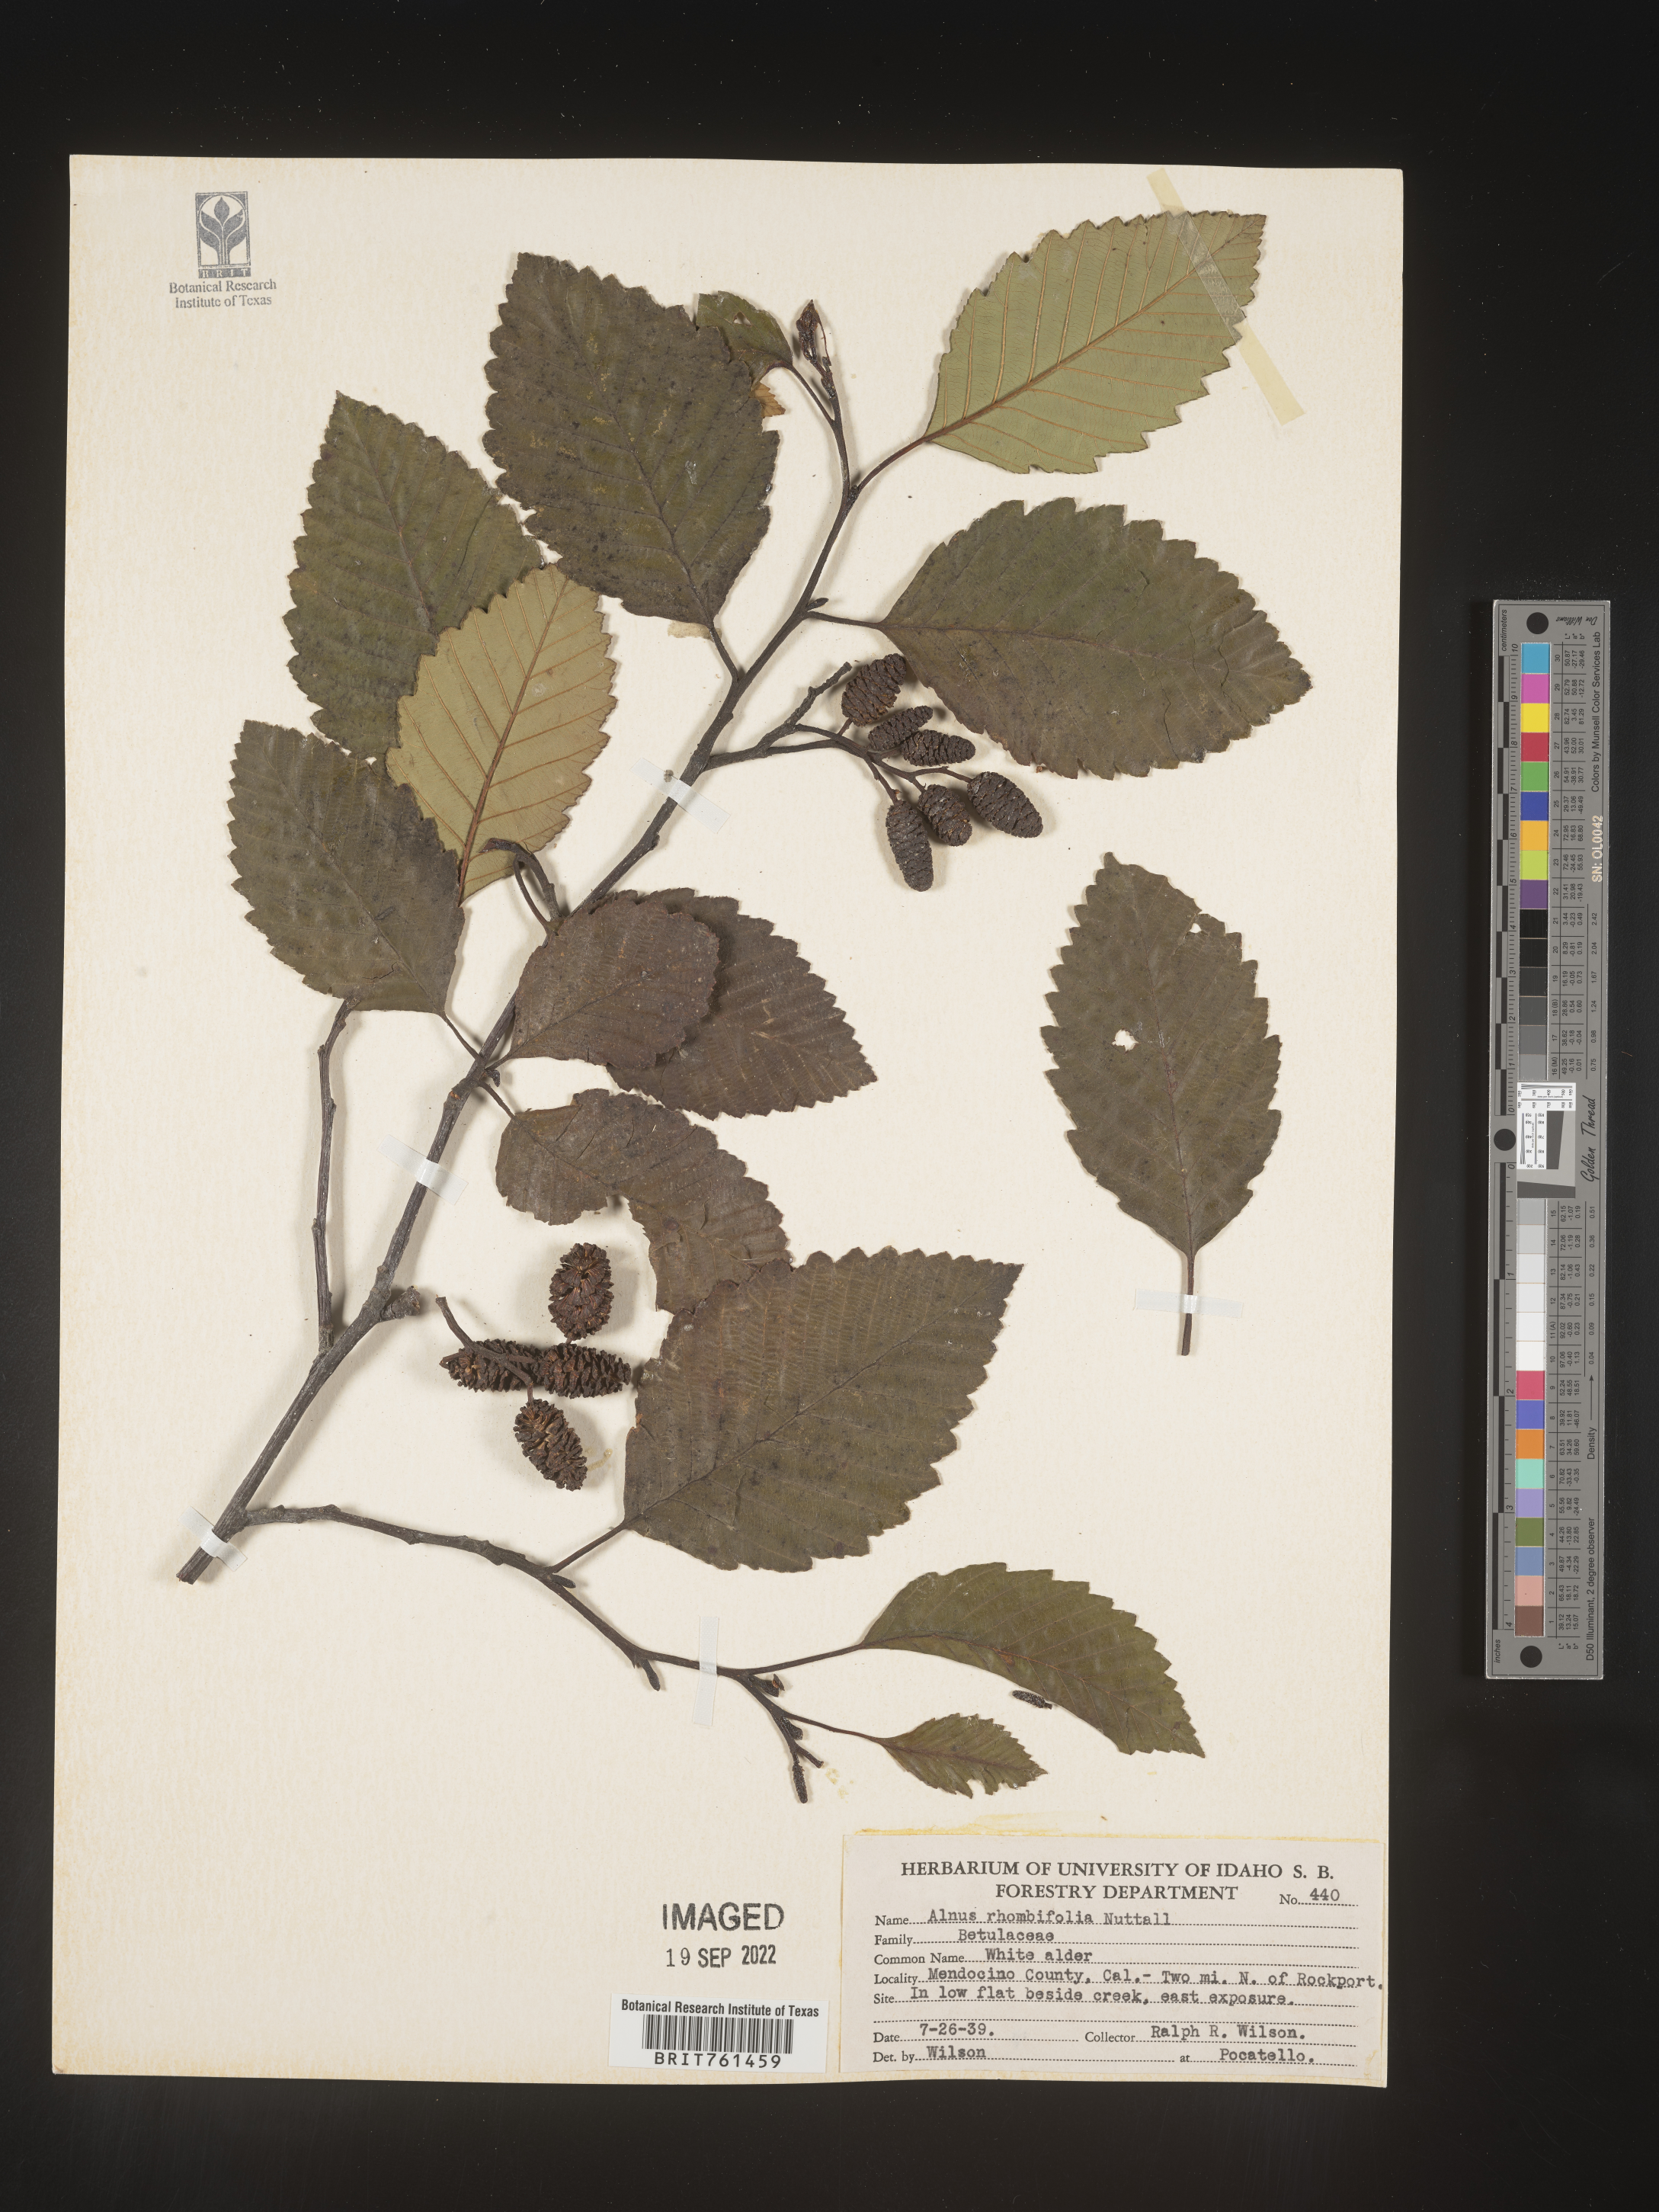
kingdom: Plantae
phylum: Tracheophyta
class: Magnoliopsida
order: Fagales
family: Betulaceae
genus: Alnus
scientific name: Alnus rhombifolia
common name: California alder
